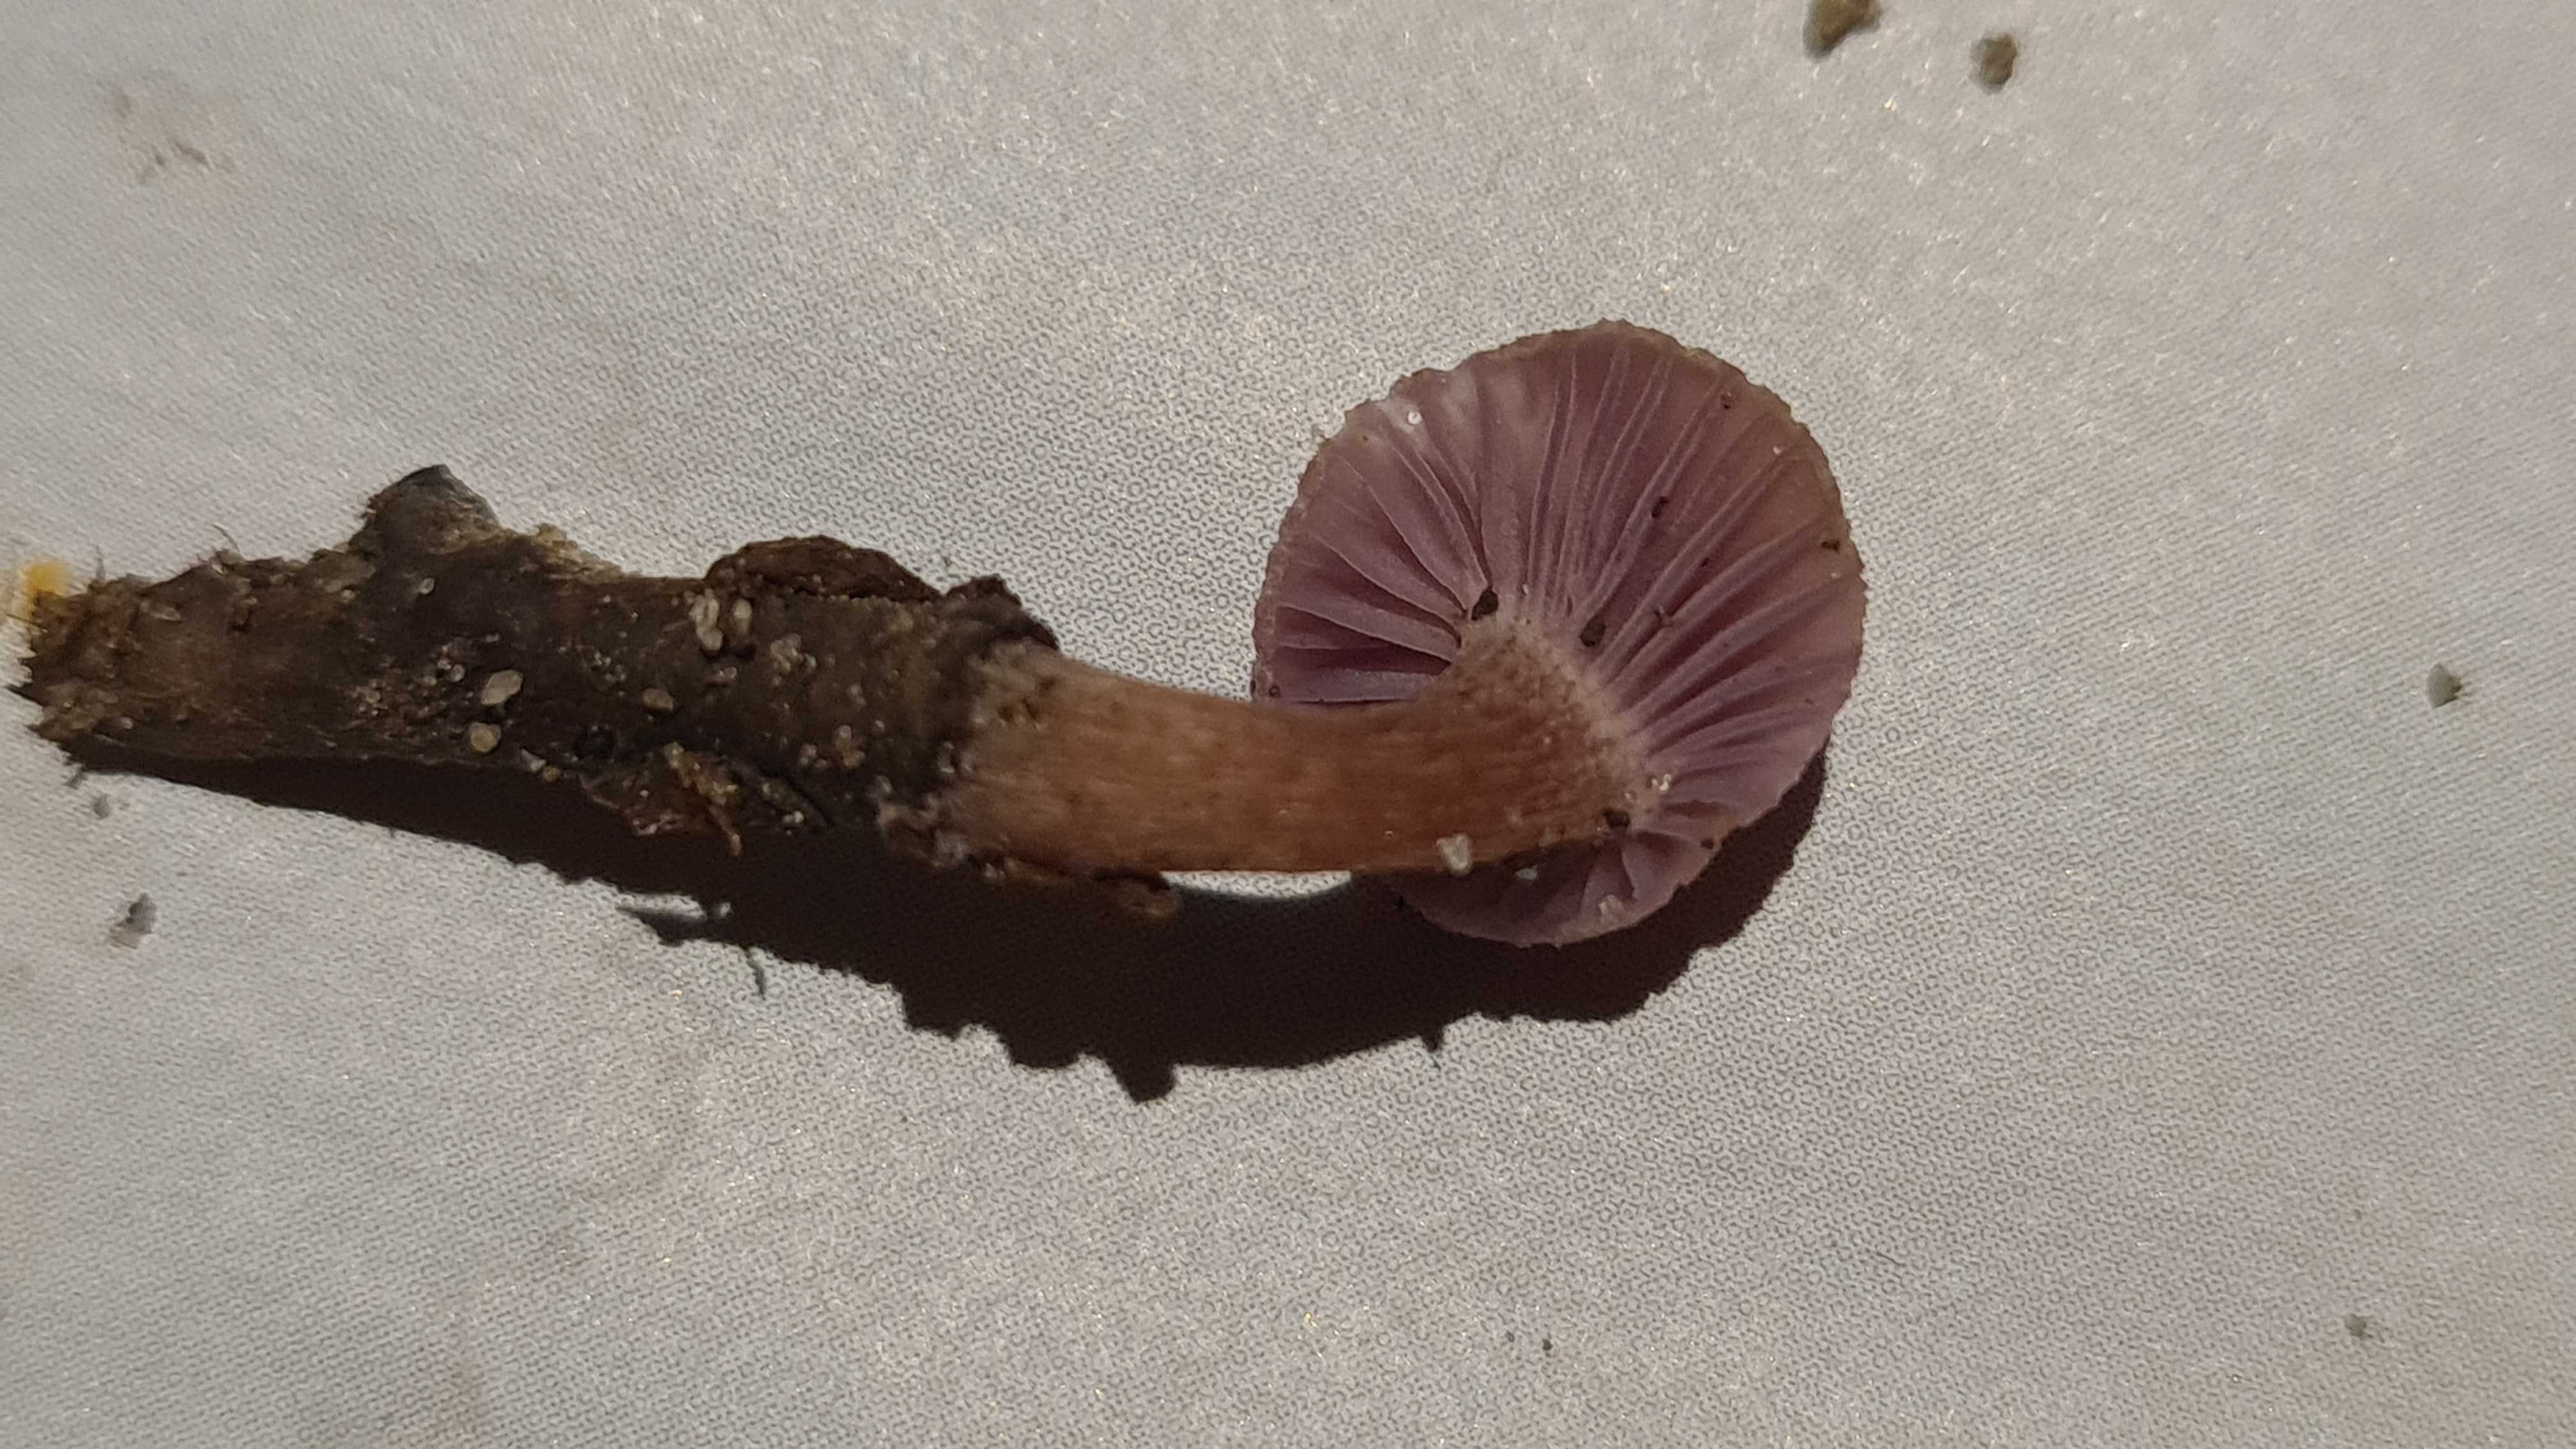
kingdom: Fungi
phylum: Basidiomycota
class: Agaricomycetes
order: Agaricales
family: Hydnangiaceae
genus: Laccaria
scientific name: Laccaria amethystina
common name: violet ametysthat
